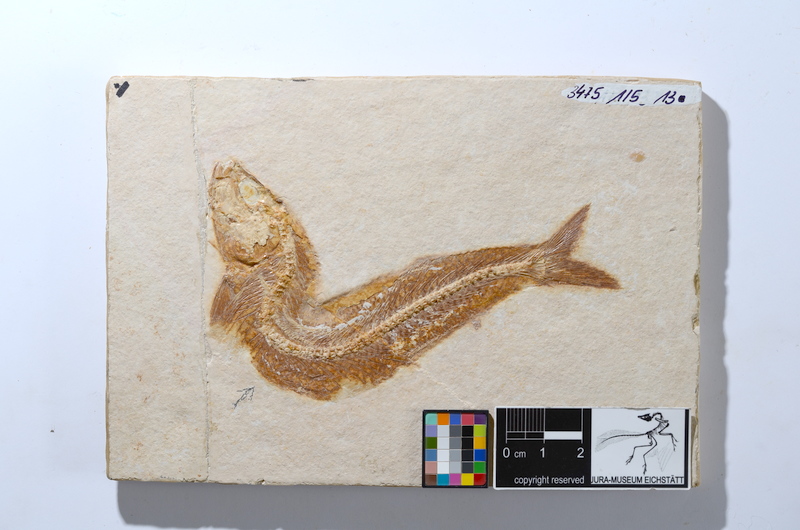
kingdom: Animalia
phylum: Chordata
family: Allothrissopidae
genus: Allothrissops
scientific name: Allothrissops mesogaster
